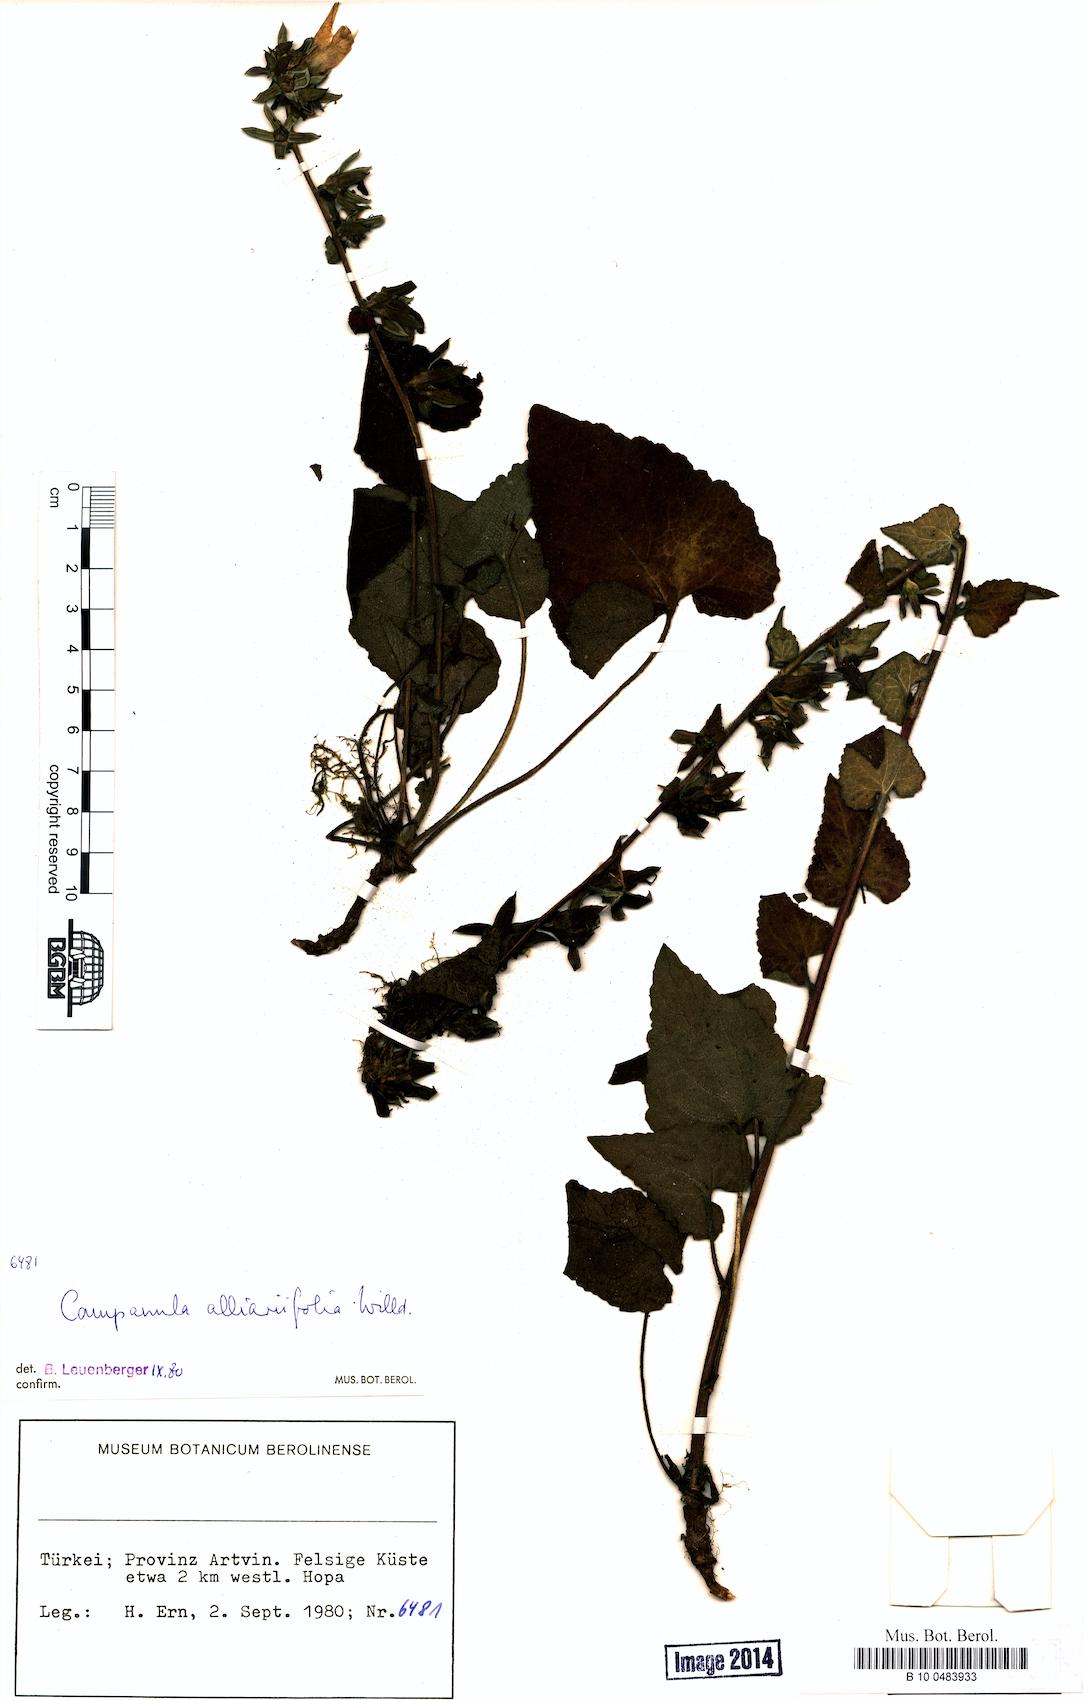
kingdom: Plantae
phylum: Tracheophyta
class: Magnoliopsida
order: Asterales
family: Campanulaceae
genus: Campanula
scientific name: Campanula alliariifolia
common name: Cornish bellflower
